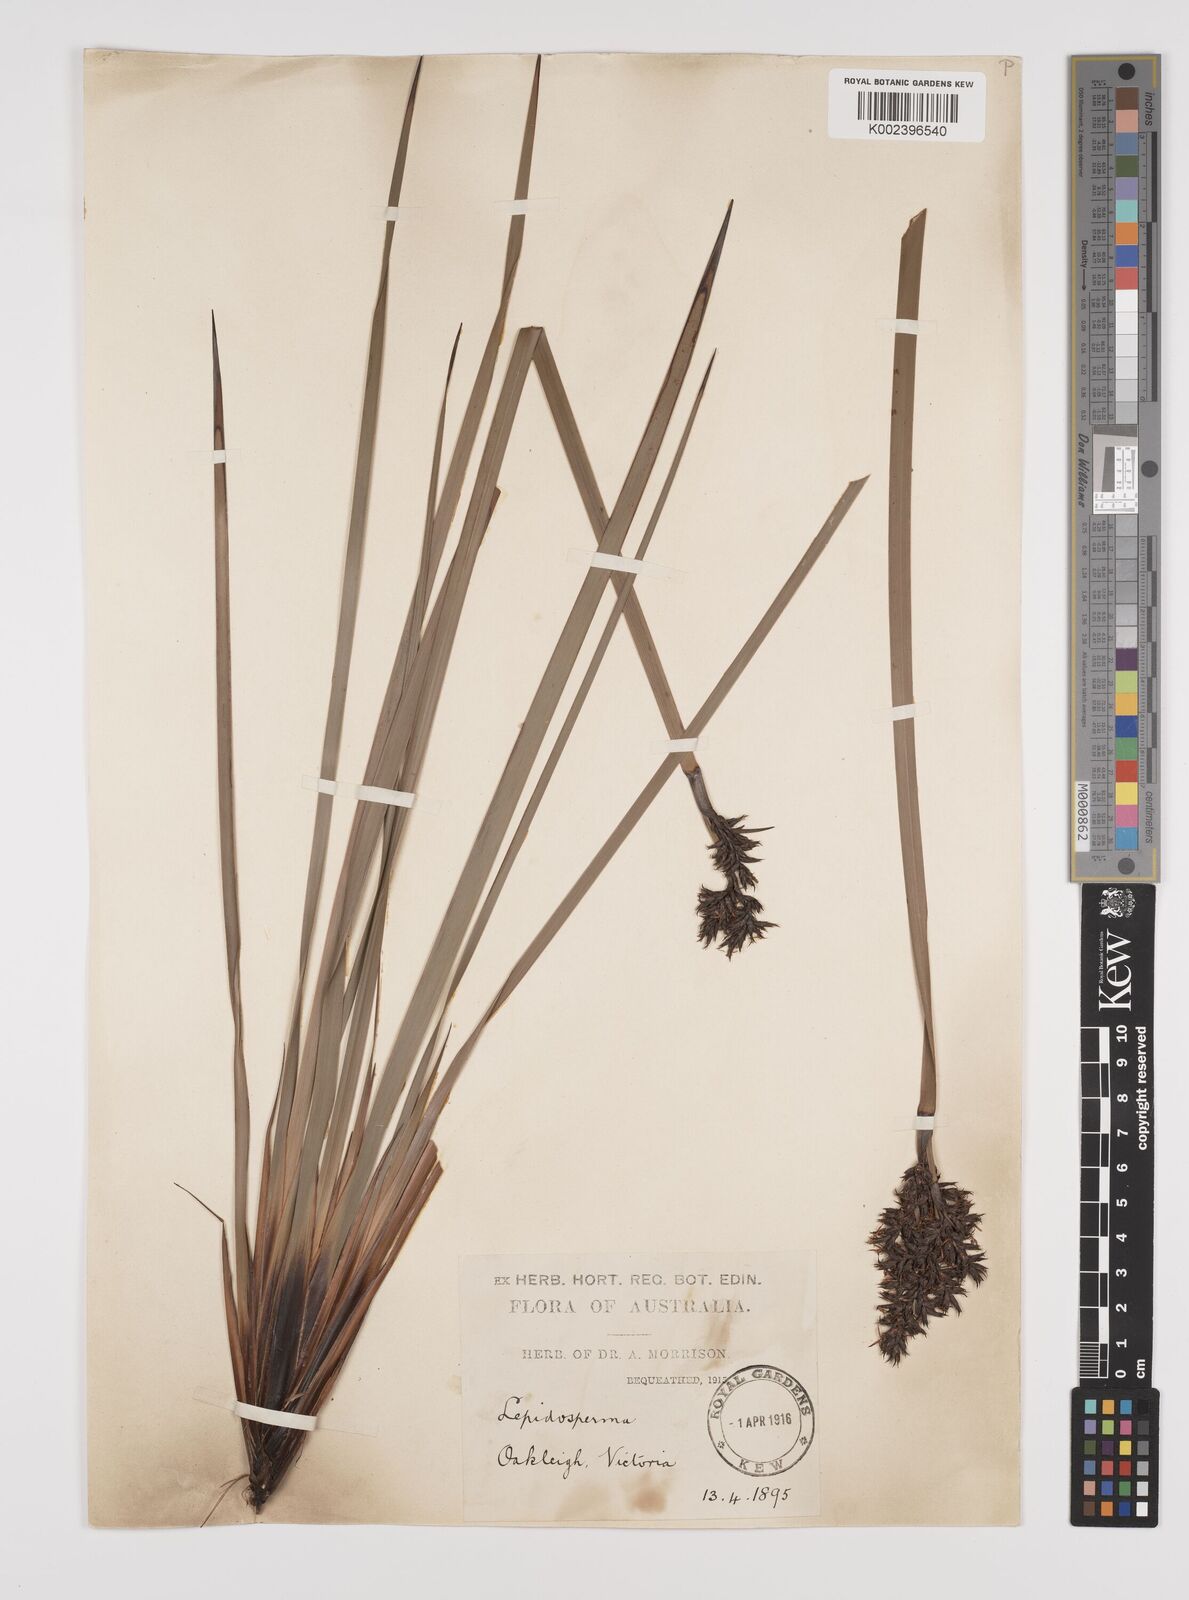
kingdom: Plantae
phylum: Tracheophyta
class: Liliopsida
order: Poales
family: Cyperaceae
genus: Lepidosperma
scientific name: Lepidosperma concavum
